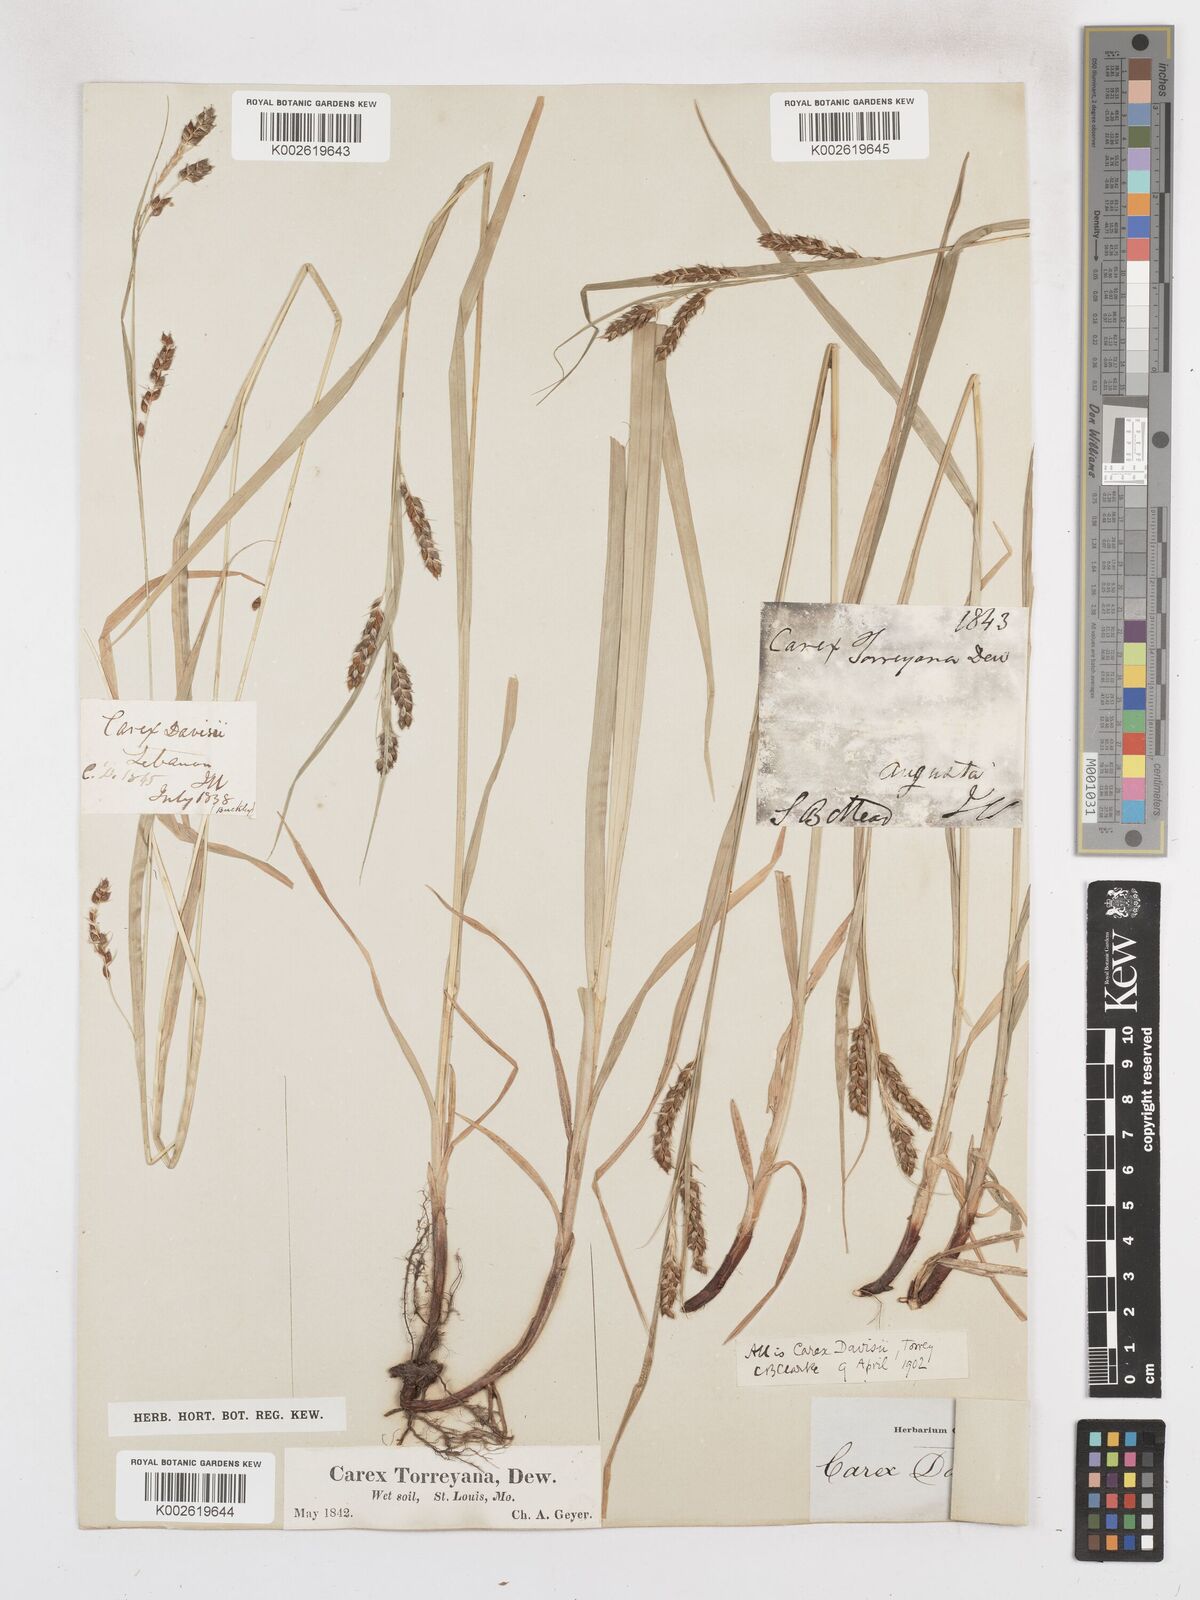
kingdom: Plantae
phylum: Tracheophyta
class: Liliopsida
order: Poales
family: Cyperaceae
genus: Carex
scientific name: Carex davisii
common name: Davis' sedge
